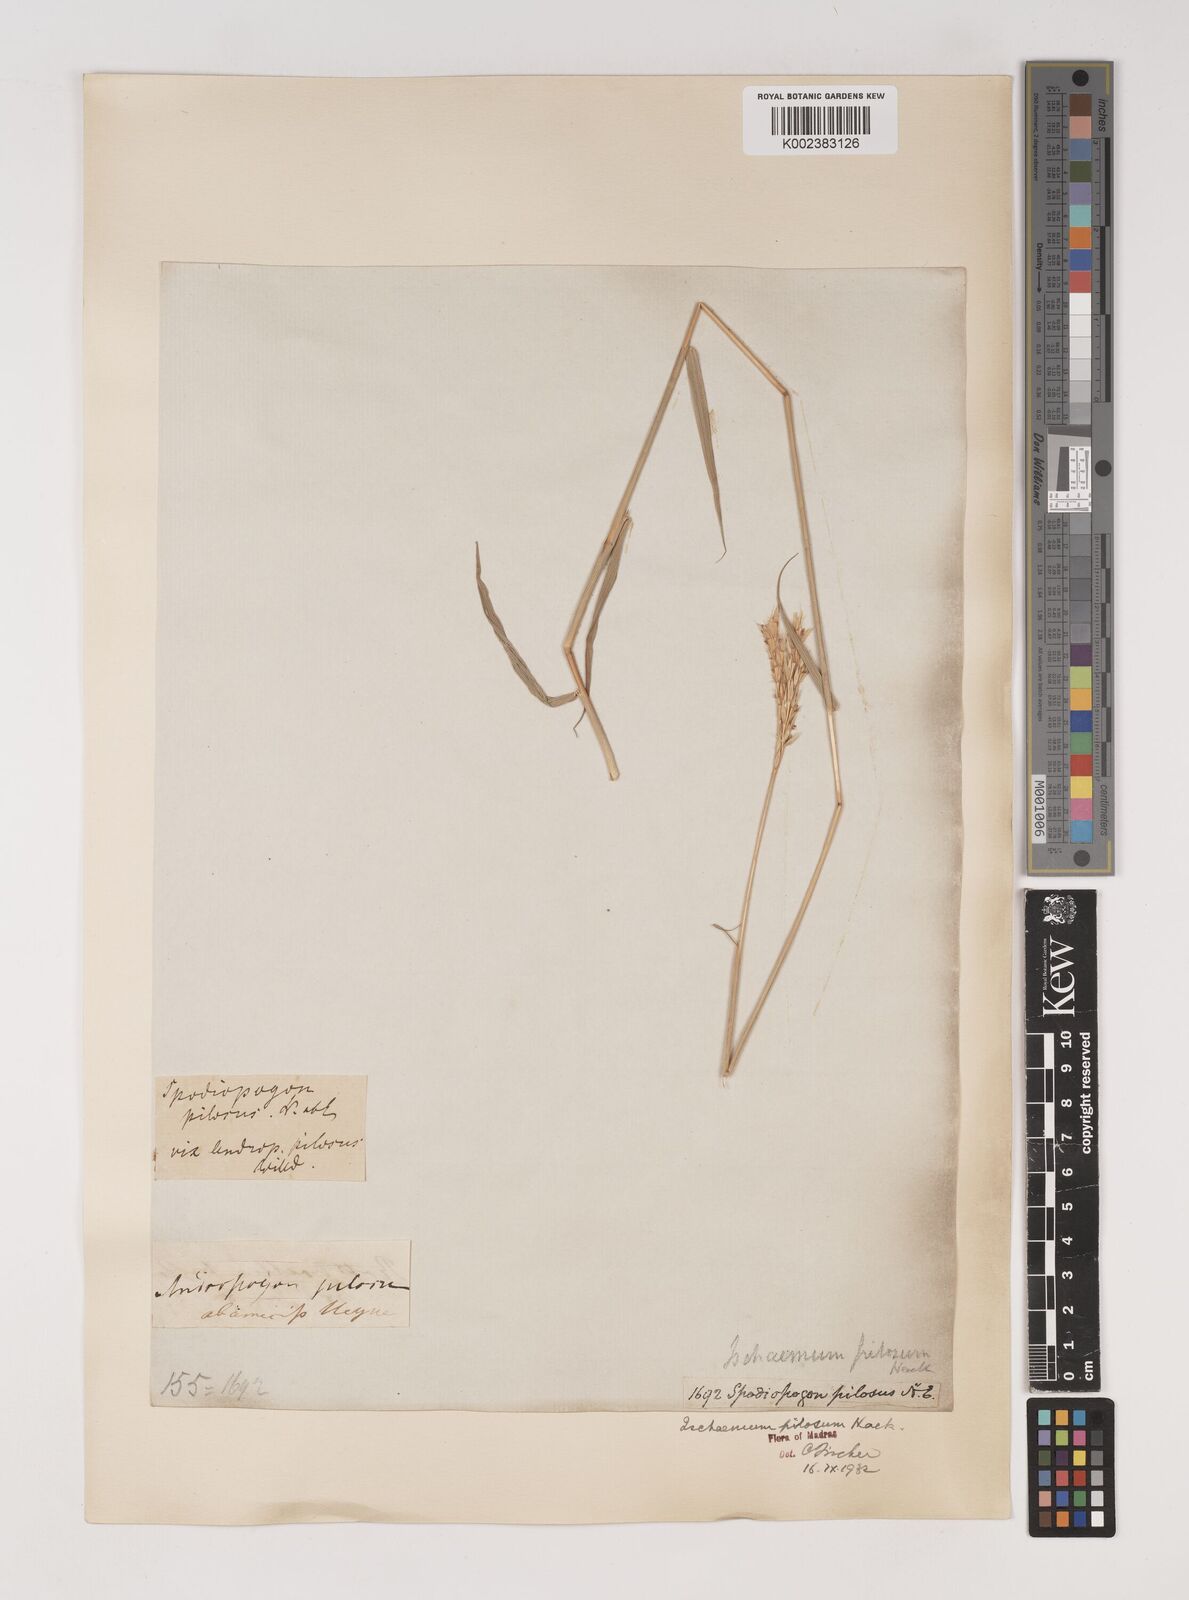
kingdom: Plantae
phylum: Tracheophyta
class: Liliopsida
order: Poales
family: Poaceae
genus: Ischaemum
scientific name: Ischaemum afrum
